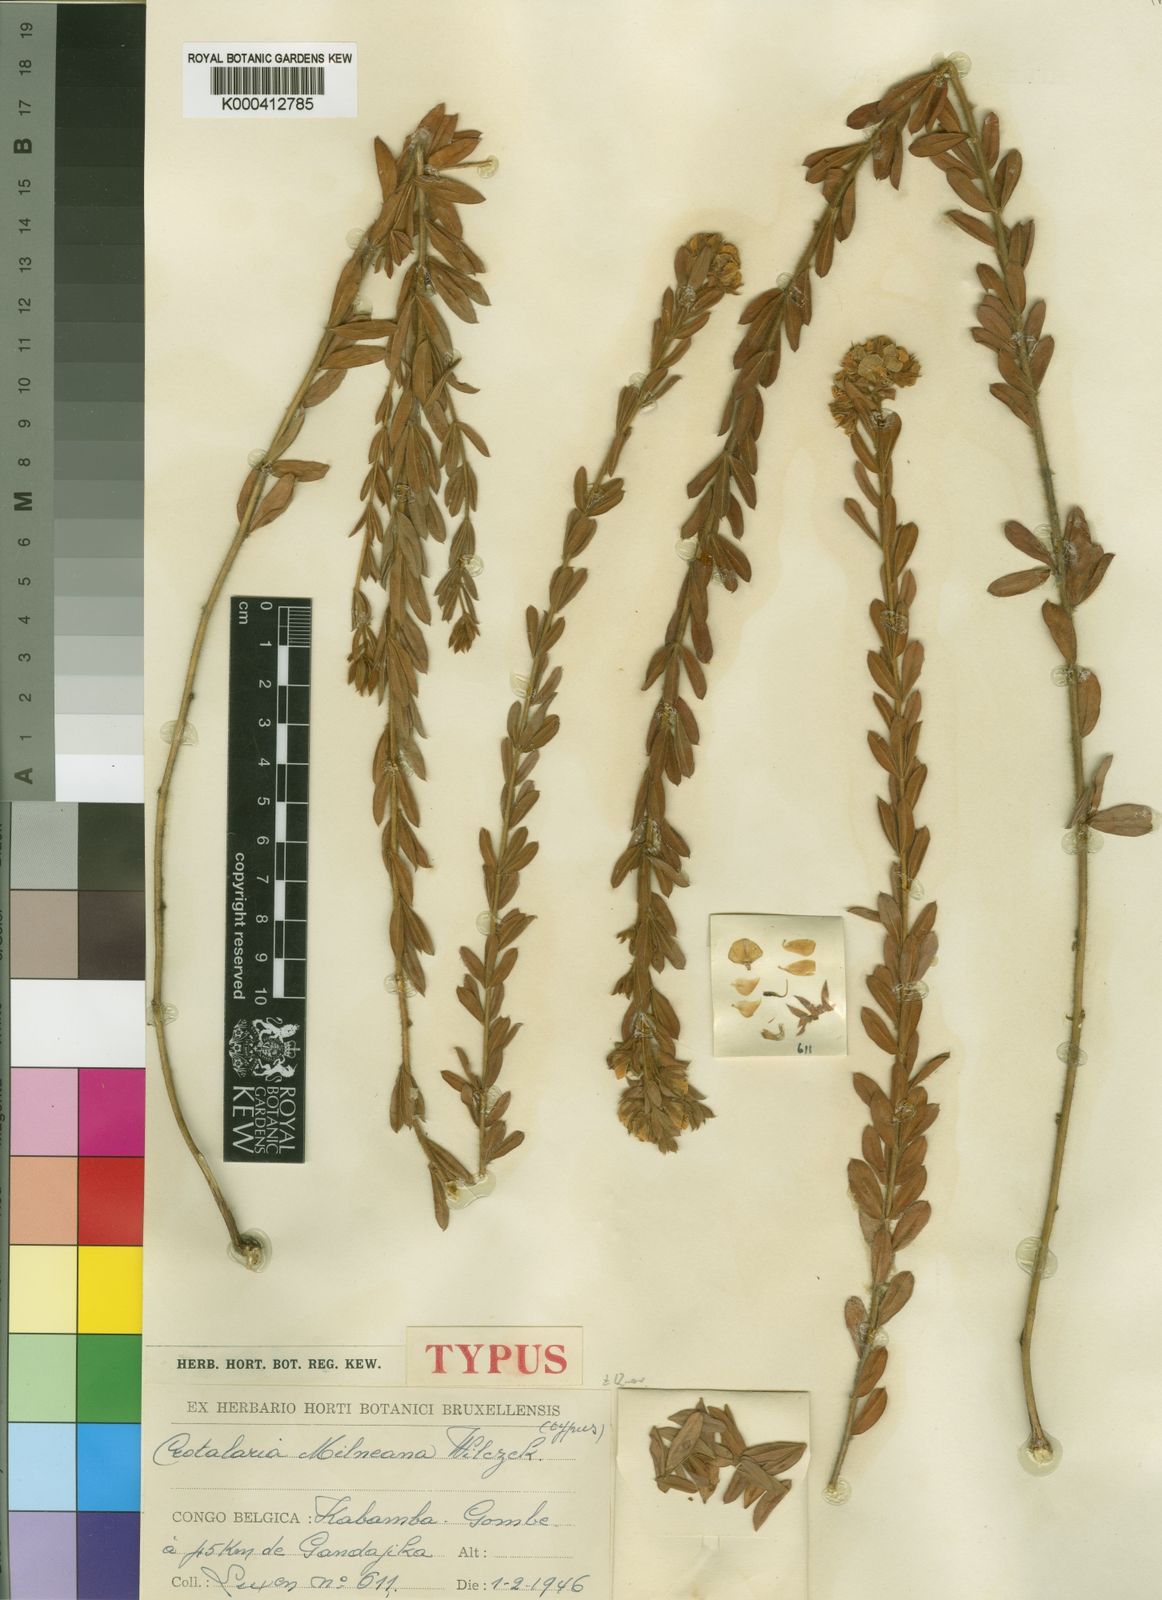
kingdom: Plantae
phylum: Tracheophyta
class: Magnoliopsida
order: Fabales
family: Fabaceae
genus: Crotalaria
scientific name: Crotalaria milneana
